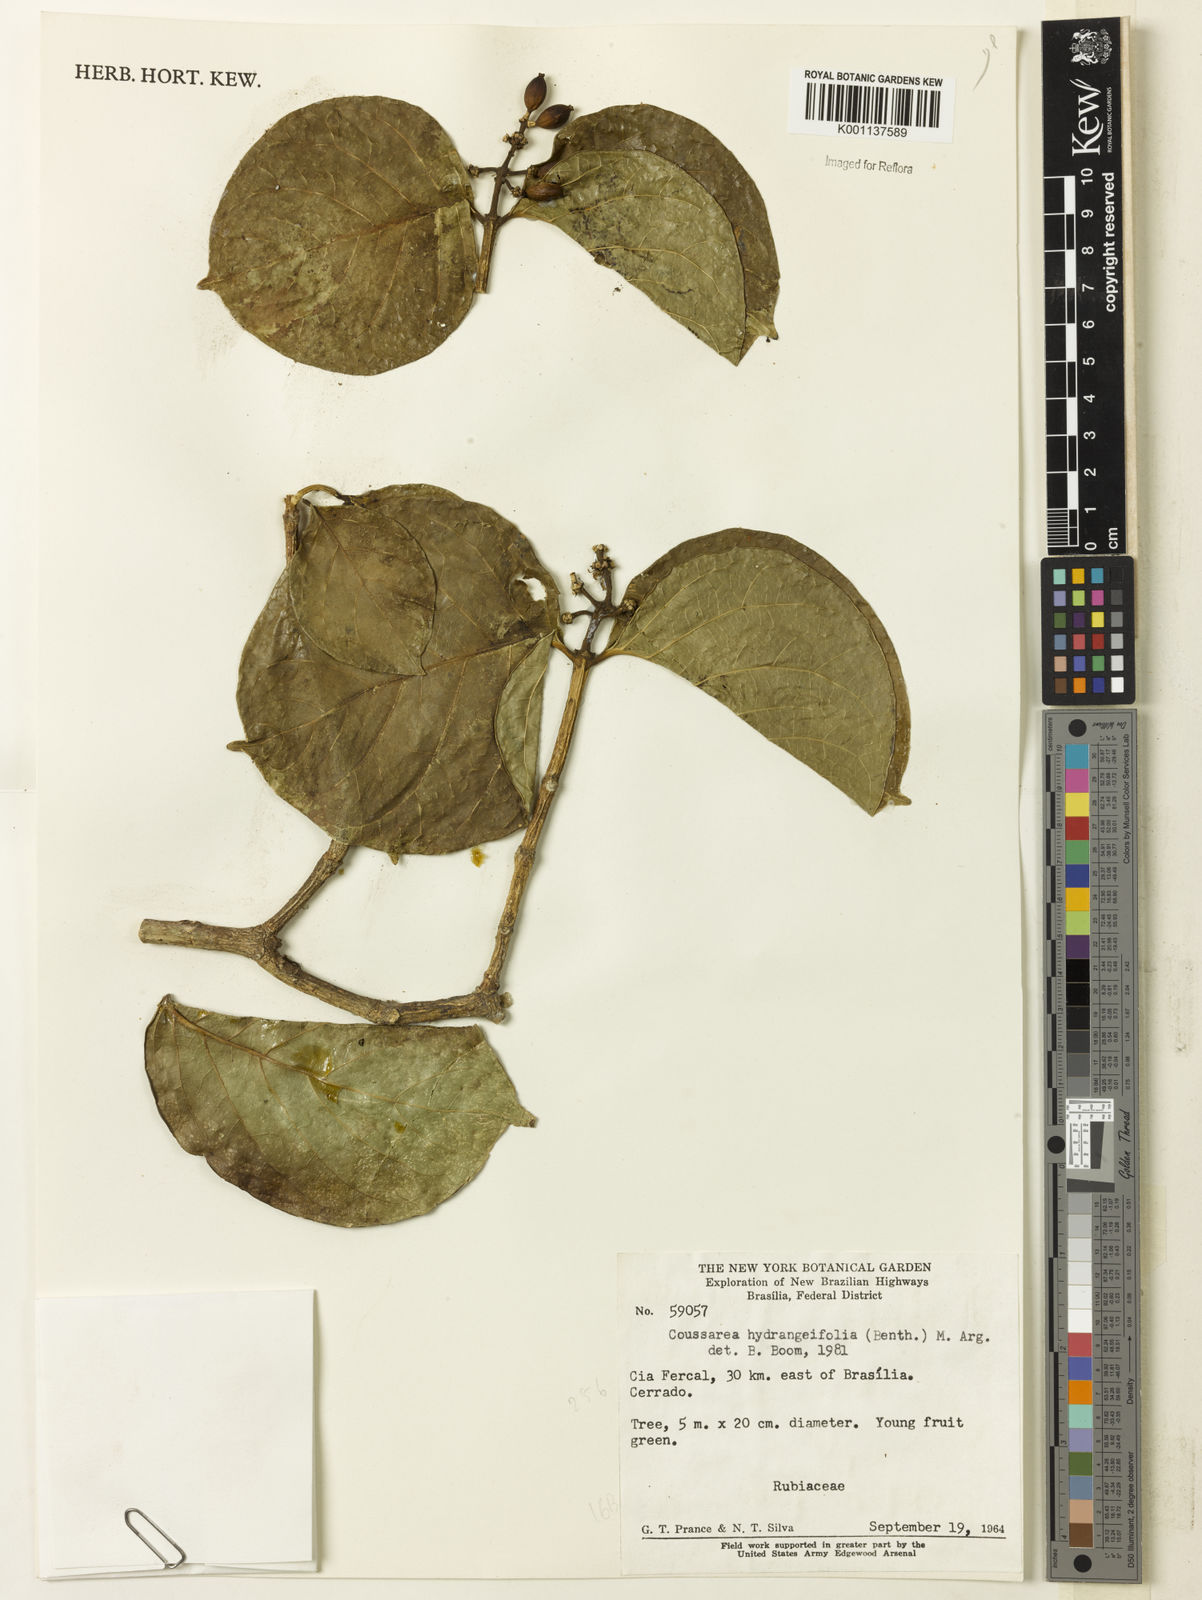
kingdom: Plantae
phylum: Tracheophyta
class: Magnoliopsida
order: Gentianales
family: Rubiaceae
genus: Coussarea
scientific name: Coussarea
